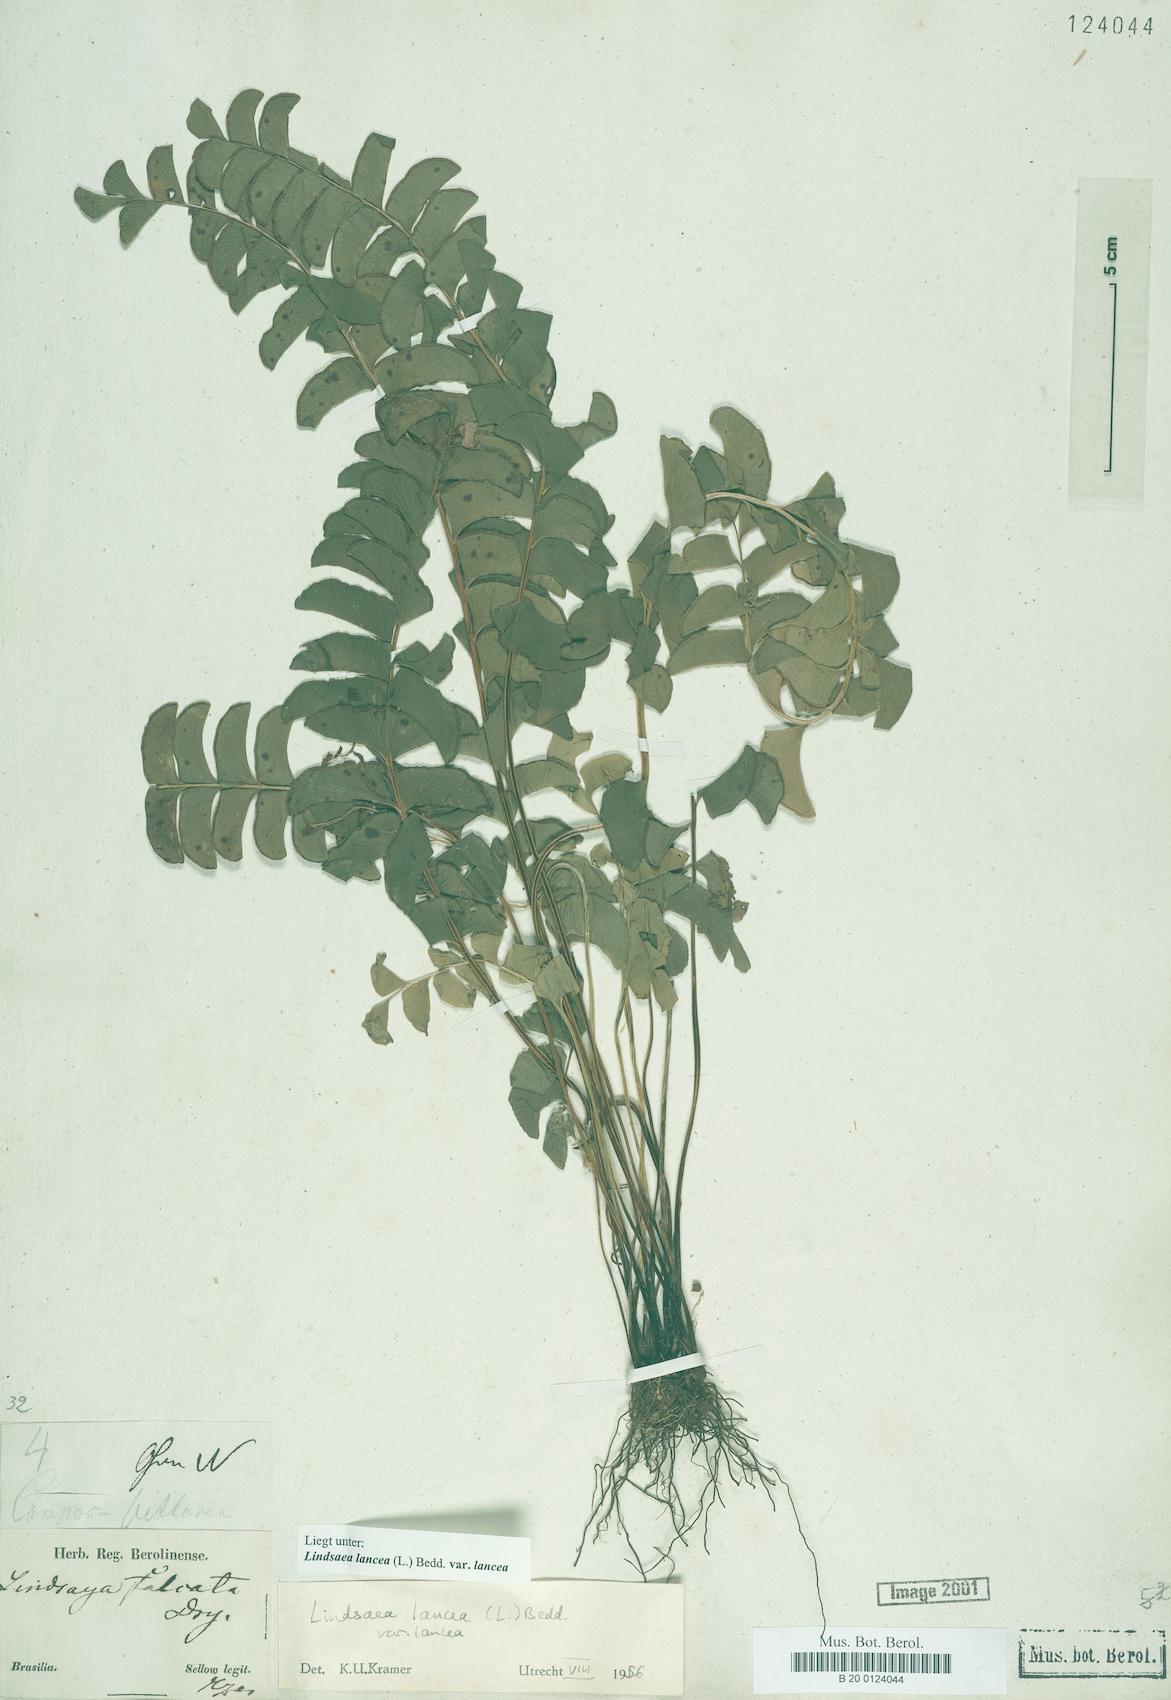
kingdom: Plantae
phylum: Tracheophyta
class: Polypodiopsida
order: Polypodiales
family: Lindsaeaceae
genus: Lindsaea
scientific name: Lindsaea lancea
